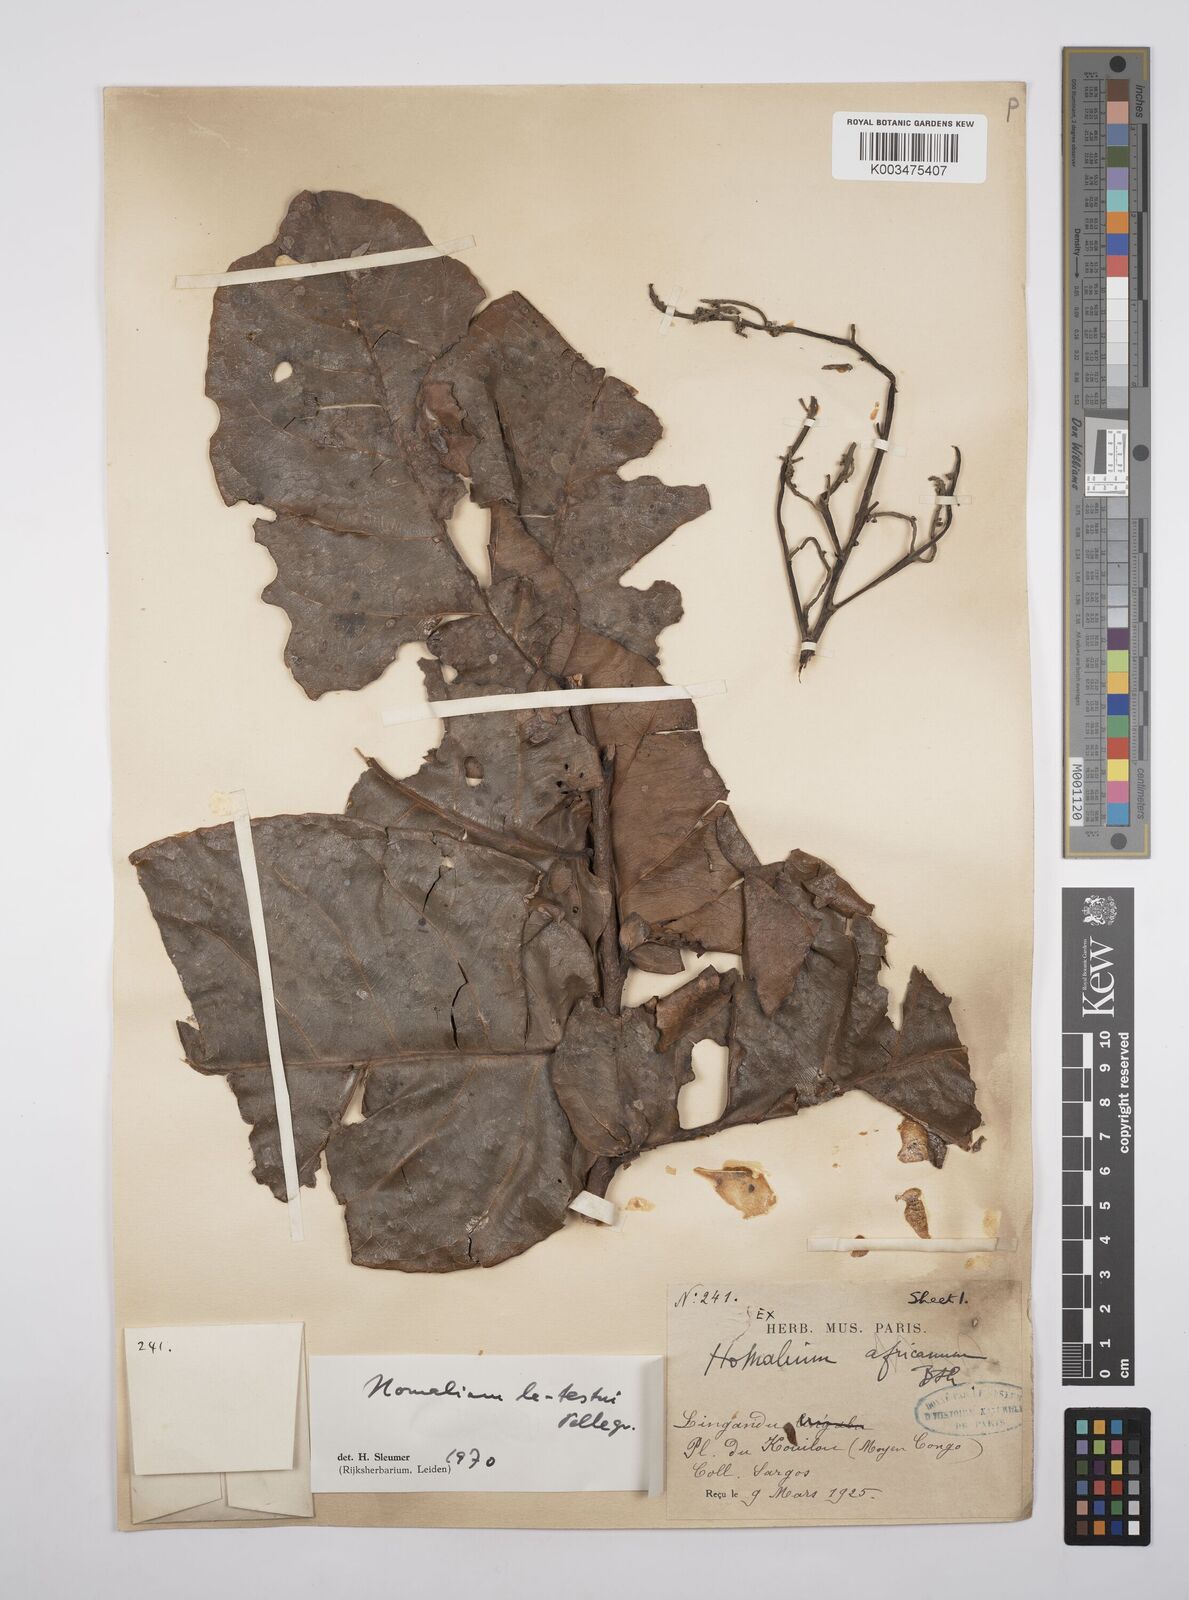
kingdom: Plantae
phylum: Tracheophyta
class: Magnoliopsida
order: Malpighiales
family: Salicaceae
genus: Homalium
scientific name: Homalium letestui
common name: African homalium
